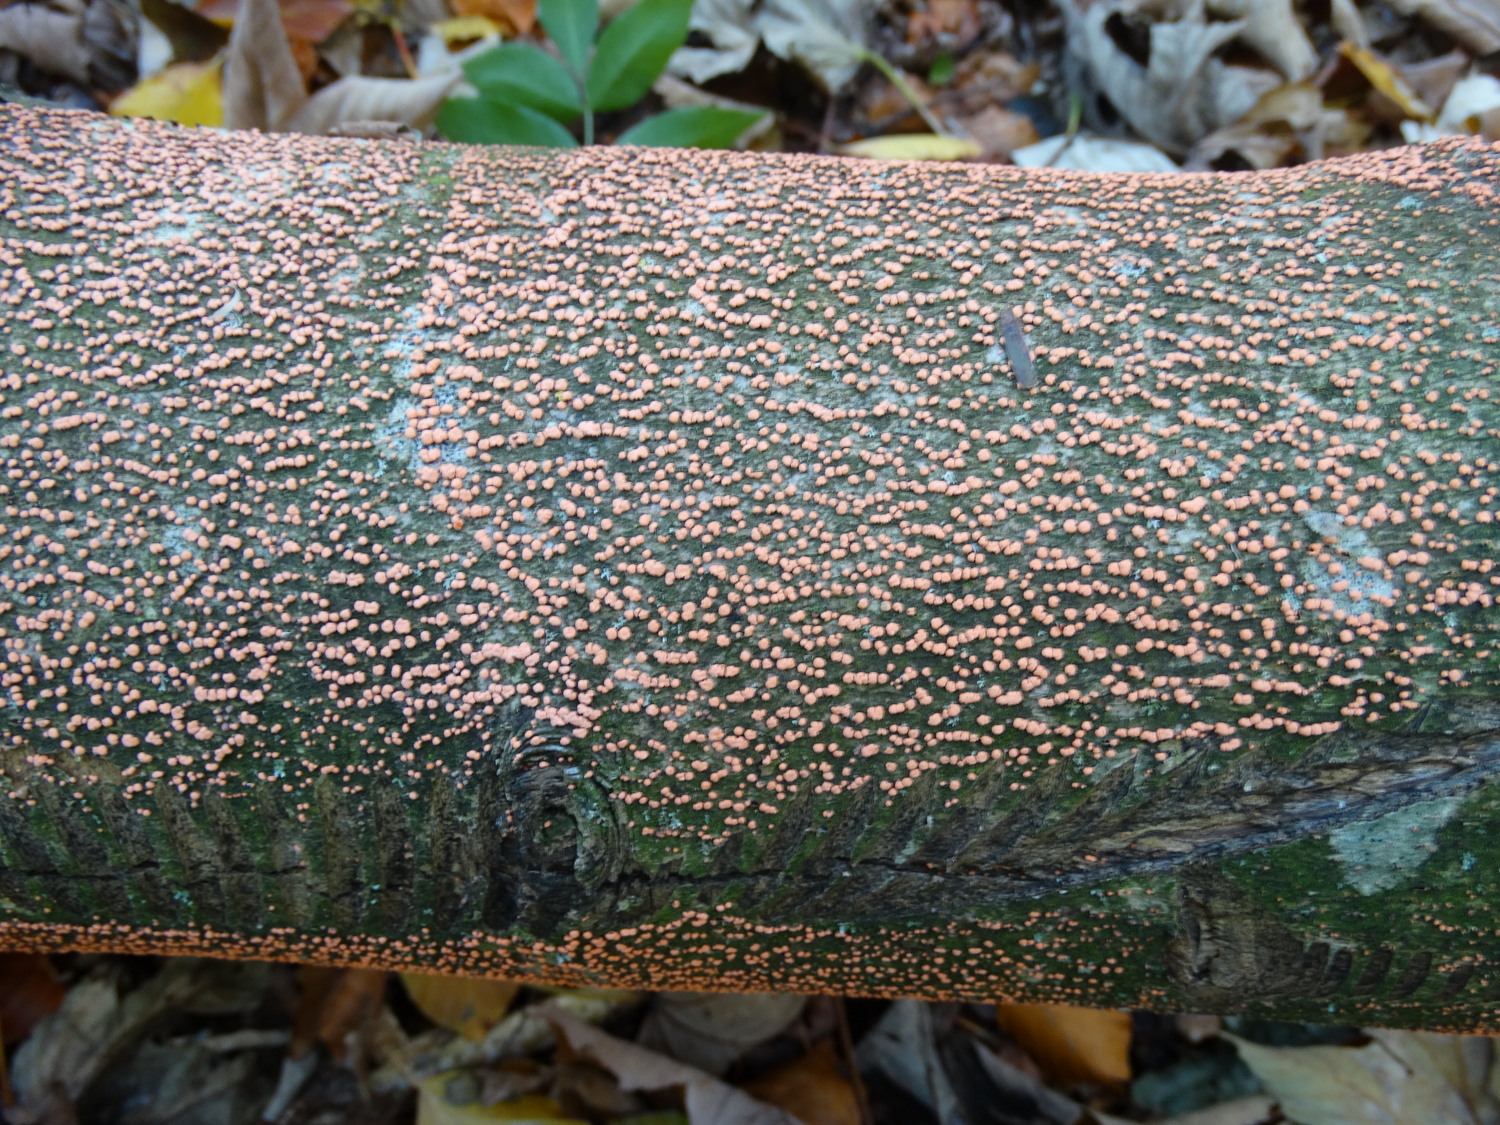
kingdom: Fungi
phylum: Ascomycota
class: Sordariomycetes
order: Hypocreales
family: Nectriaceae
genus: Nectria
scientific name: Nectria cinnabarina
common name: almindelig cinnobersvamp
